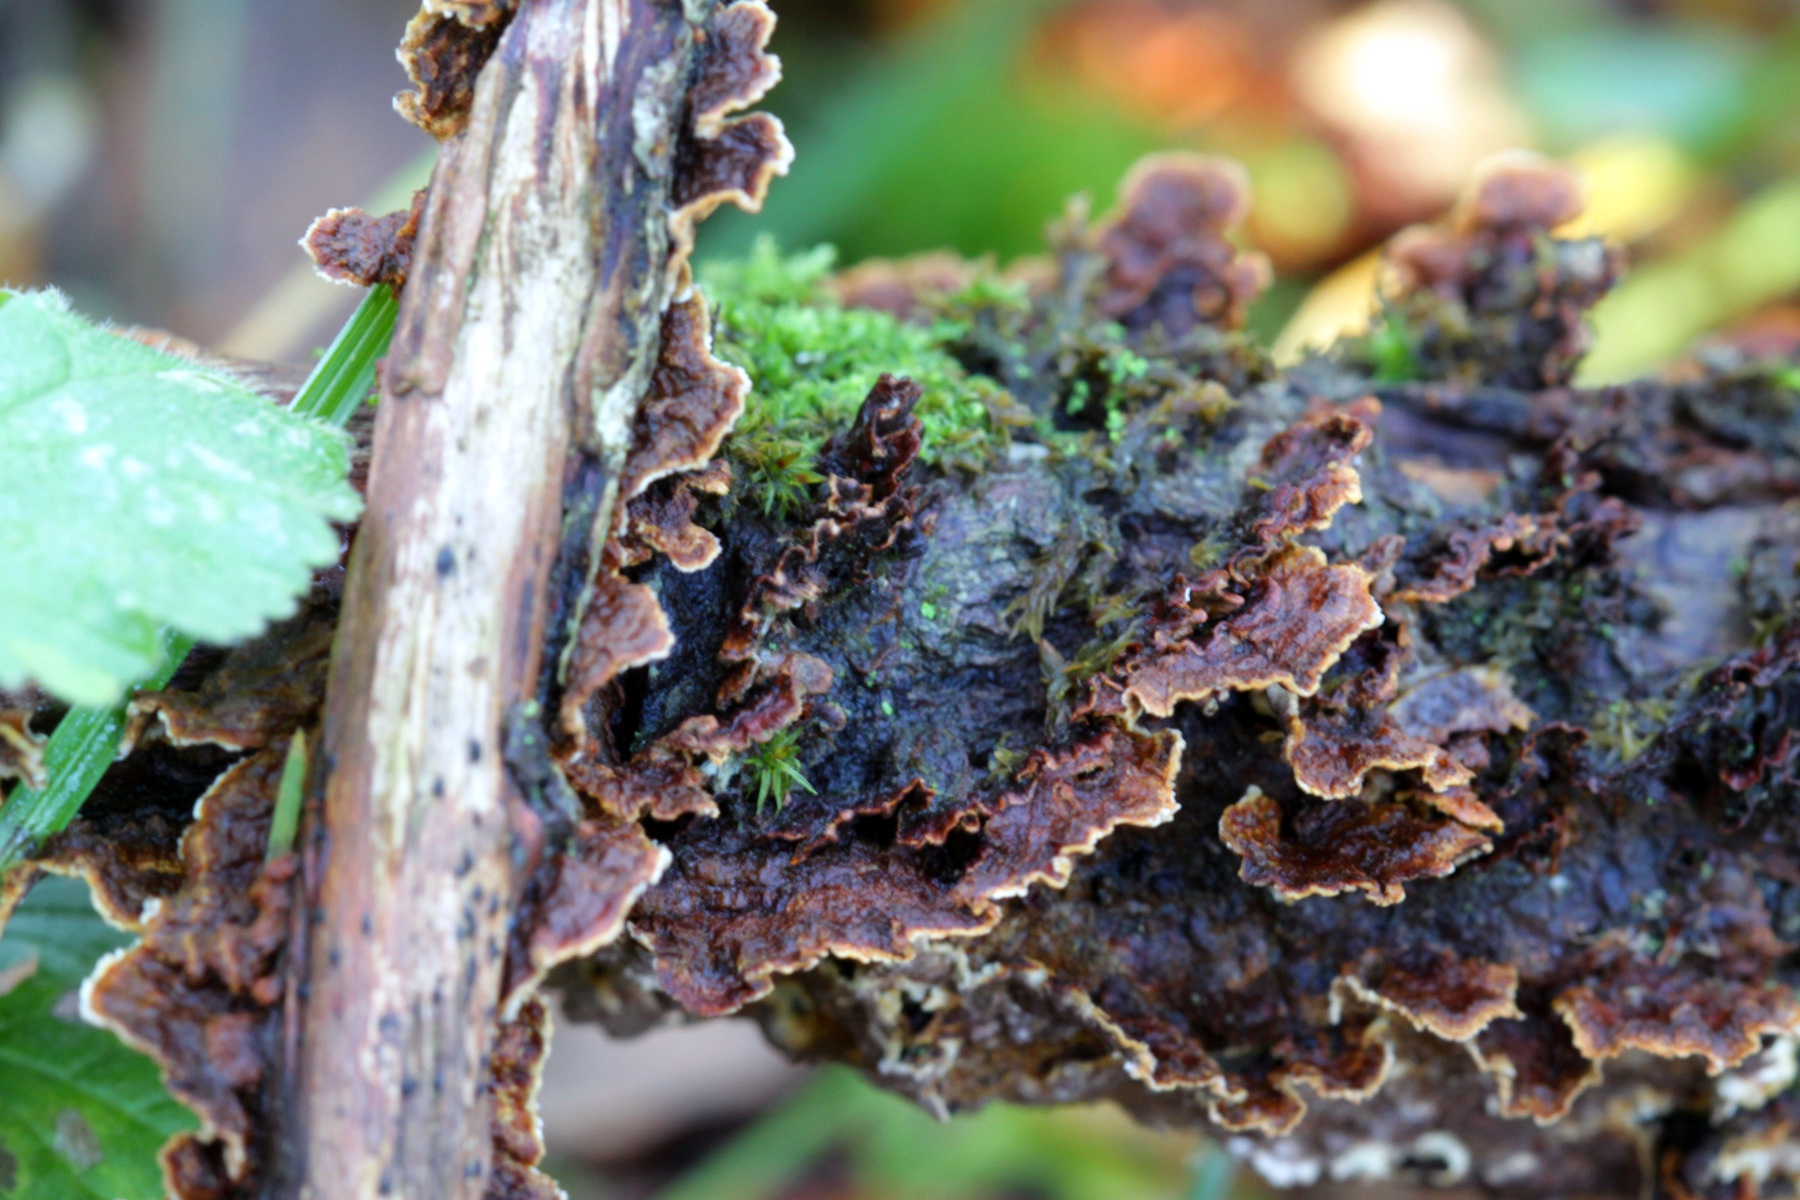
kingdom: Fungi
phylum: Basidiomycota
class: Agaricomycetes
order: Hymenochaetales
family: Hymenochaetaceae
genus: Hydnoporia
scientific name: Hydnoporia tabacina
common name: tobaksbrun ruslædersvamp
